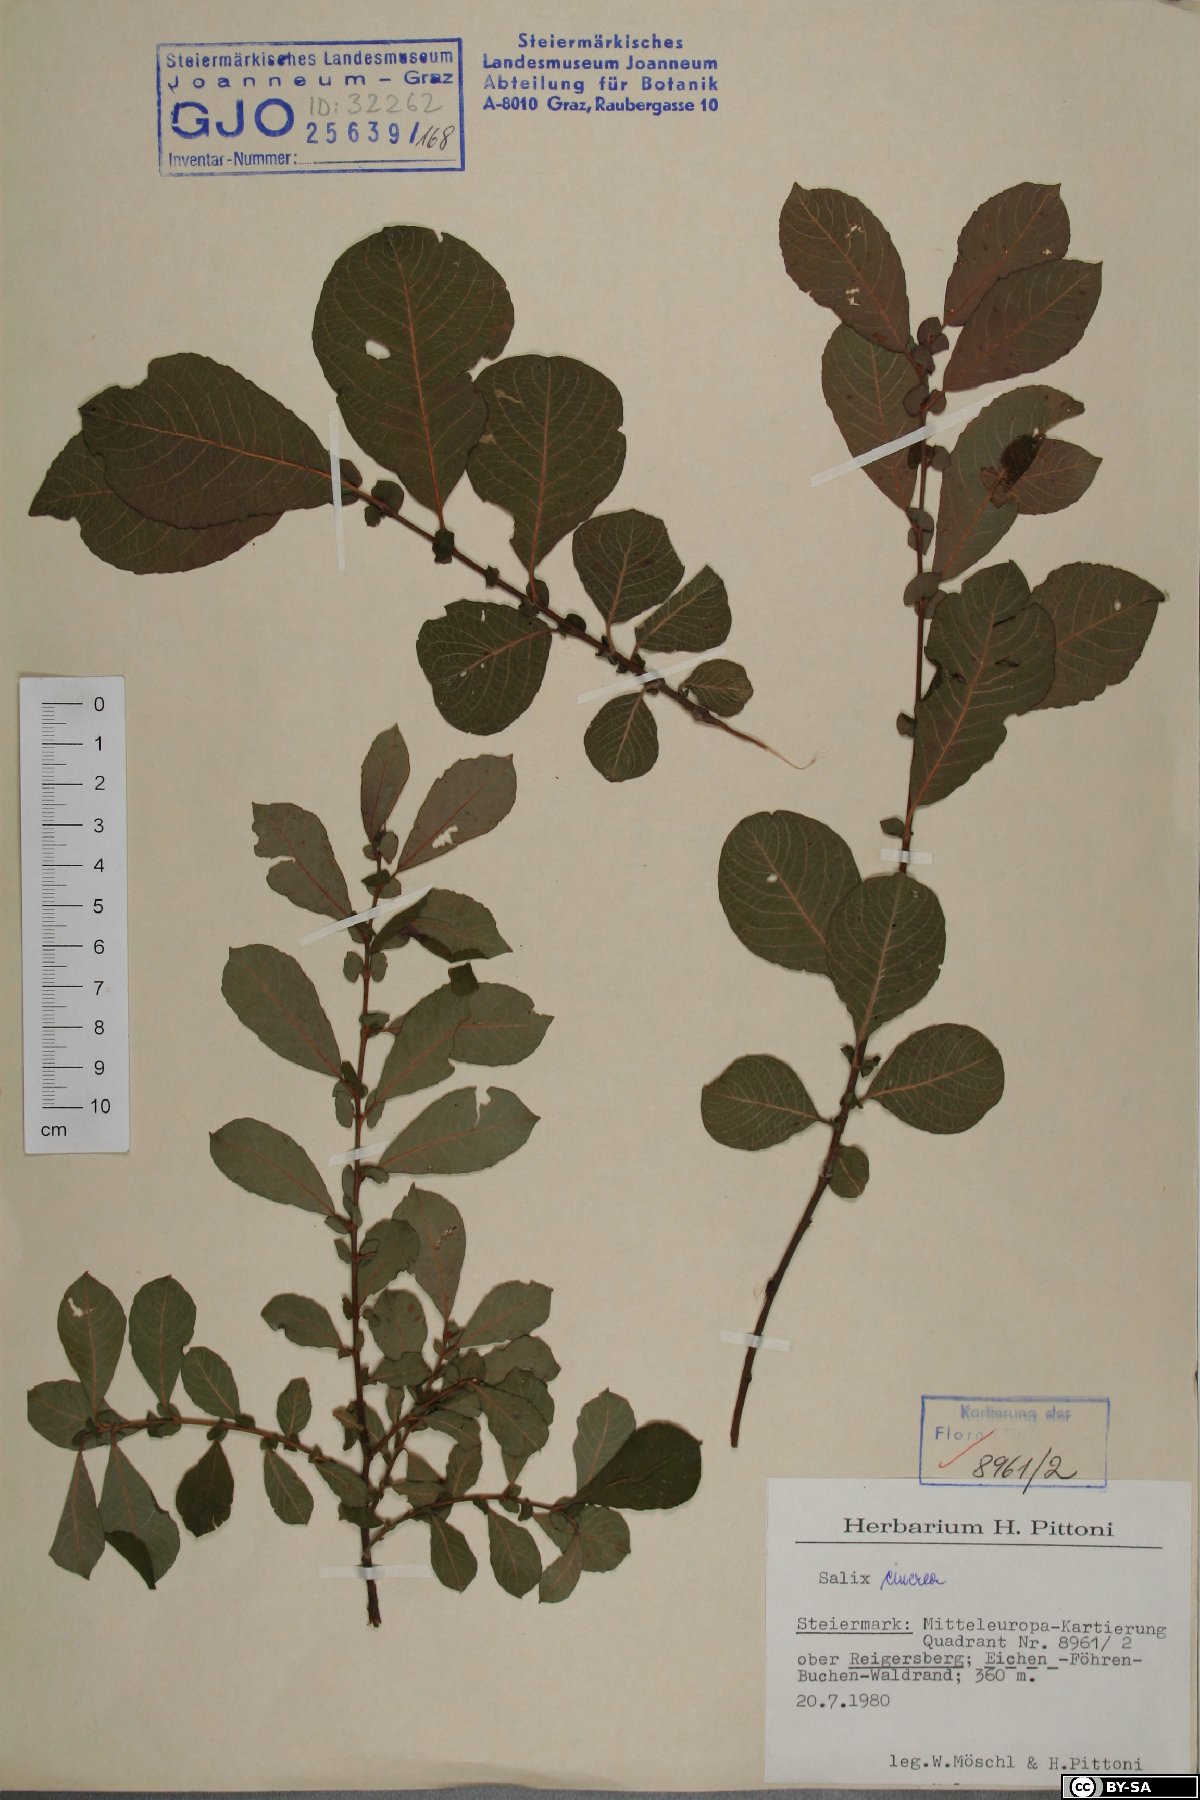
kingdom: Plantae
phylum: Tracheophyta
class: Magnoliopsida
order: Malpighiales
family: Salicaceae
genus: Salix
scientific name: Salix cinerea
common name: Common sallow
